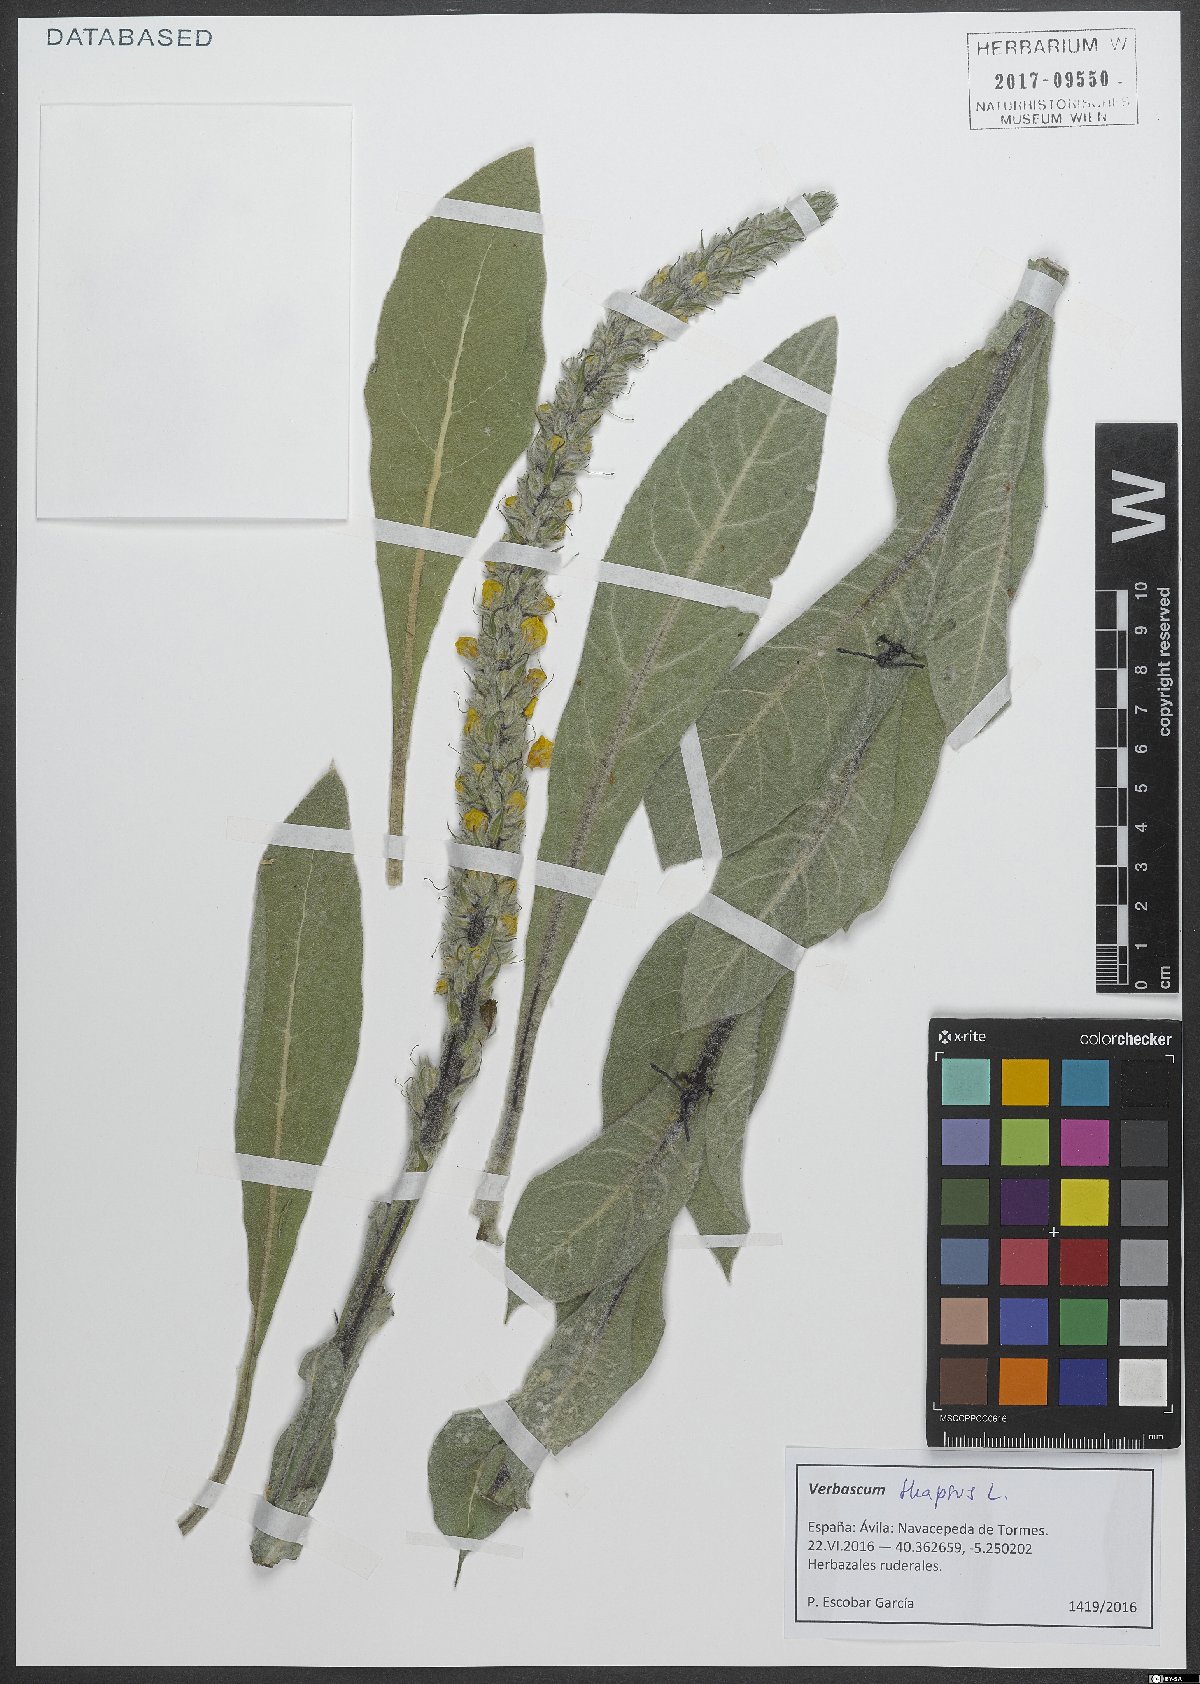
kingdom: Plantae
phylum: Tracheophyta
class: Magnoliopsida
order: Lamiales
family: Scrophulariaceae
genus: Verbascum
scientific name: Verbascum thapsus
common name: Common mullein
